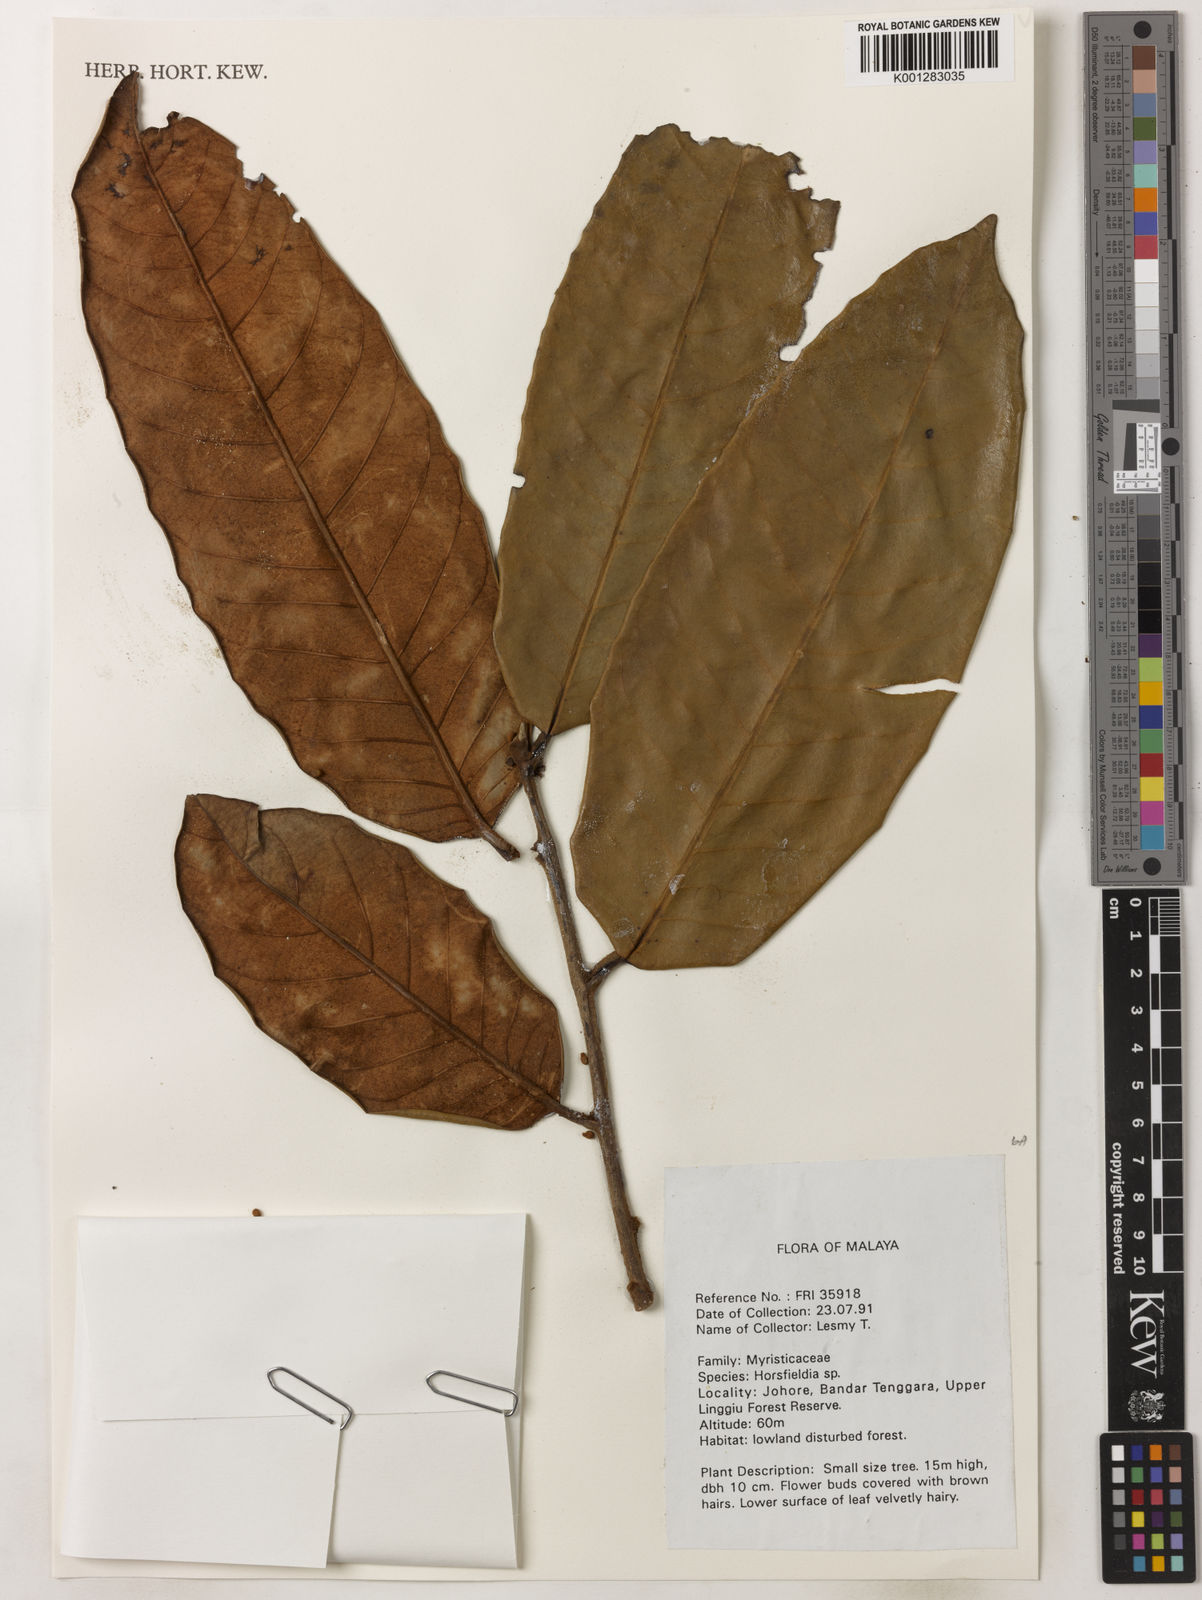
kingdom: Plantae
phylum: Tracheophyta
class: Magnoliopsida
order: Magnoliales
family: Myristicaceae
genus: Horsfieldia
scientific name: Horsfieldia
